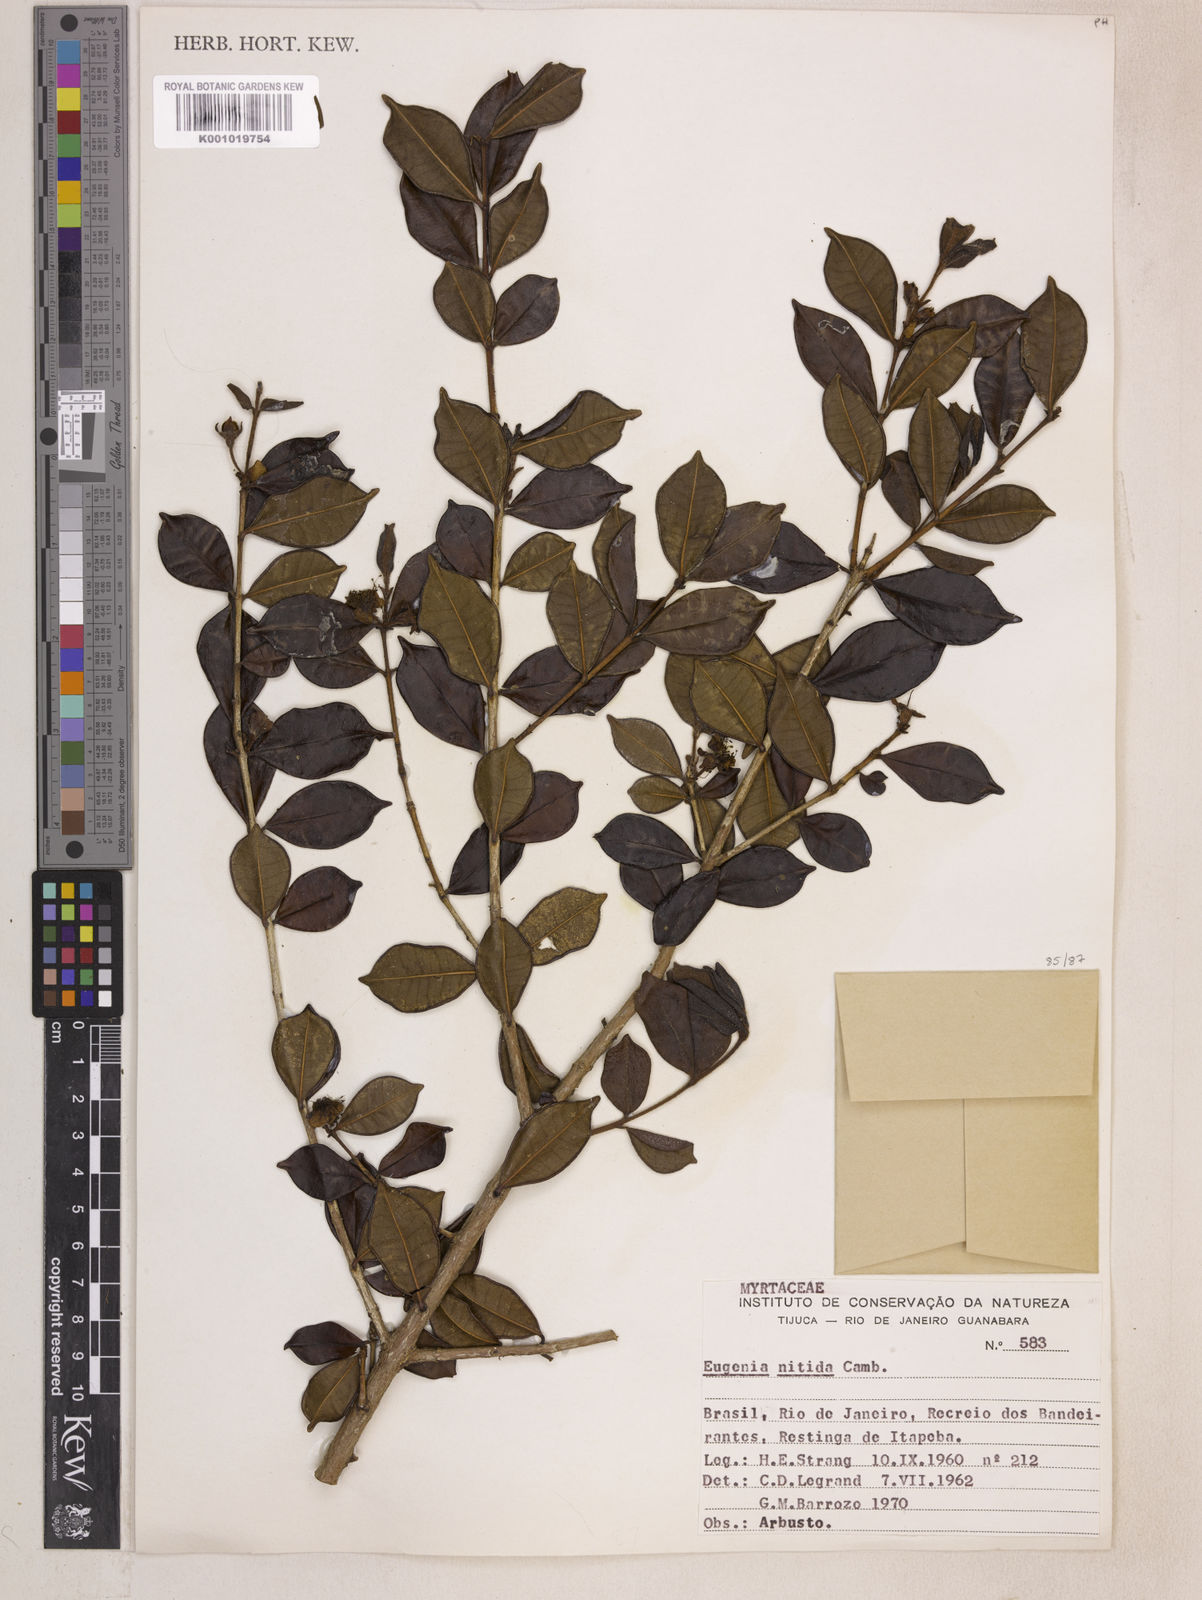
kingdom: Plantae
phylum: Tracheophyta
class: Magnoliopsida
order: Myrtales
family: Myrtaceae
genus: Eugenia
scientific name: Eugenia selloi
